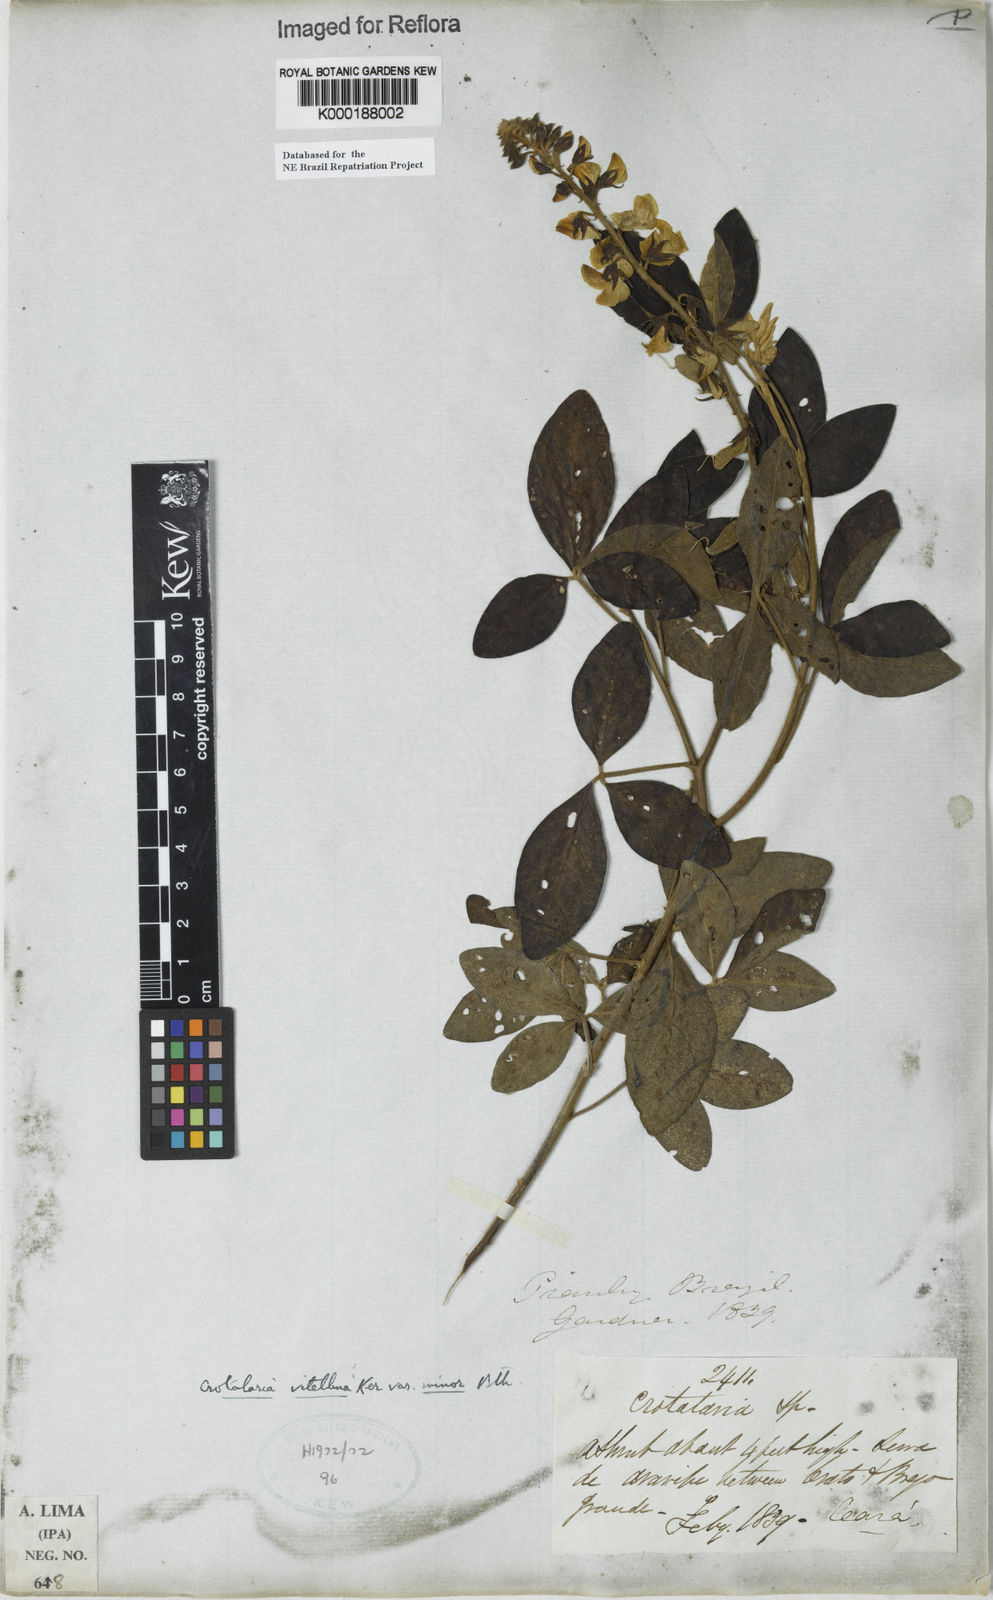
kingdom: Plantae
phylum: Tracheophyta
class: Magnoliopsida
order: Fabales
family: Fabaceae
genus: Crotalaria
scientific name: Crotalaria vitellina
